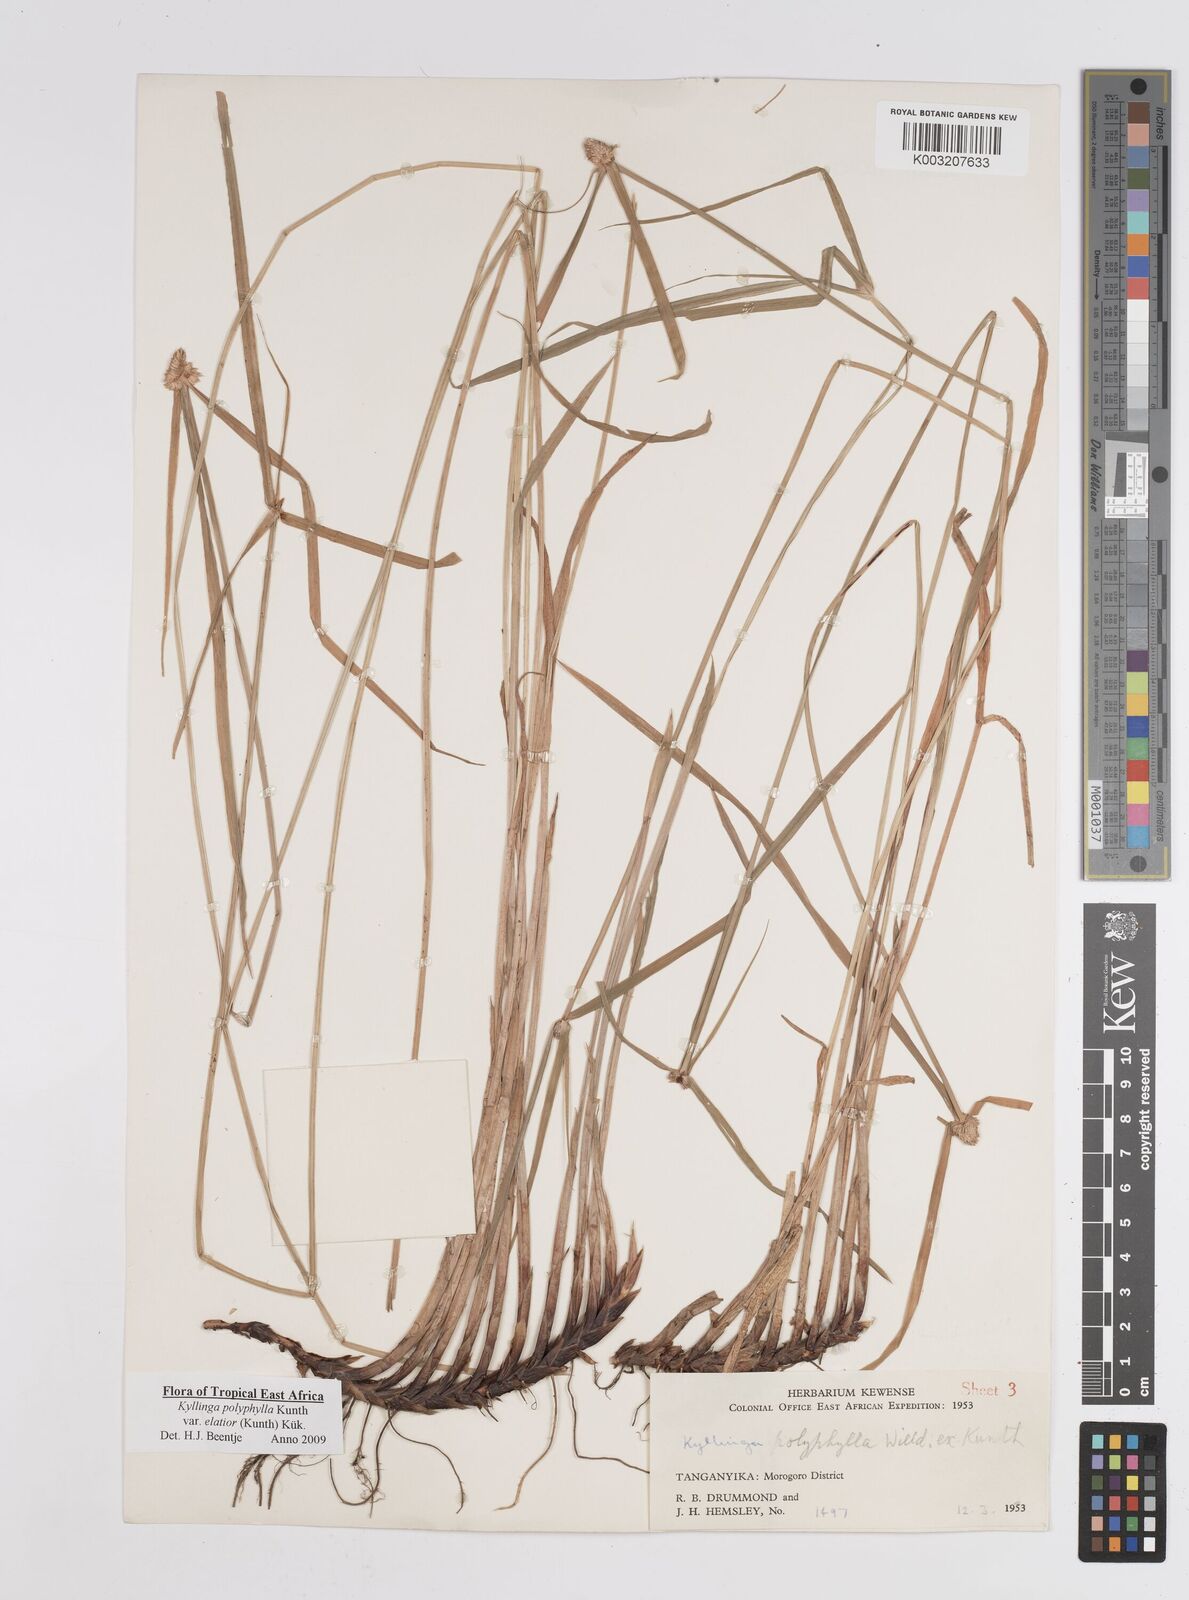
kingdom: Plantae
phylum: Tracheophyta
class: Liliopsida
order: Poales
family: Cyperaceae
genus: Cyperus
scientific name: Cyperus
